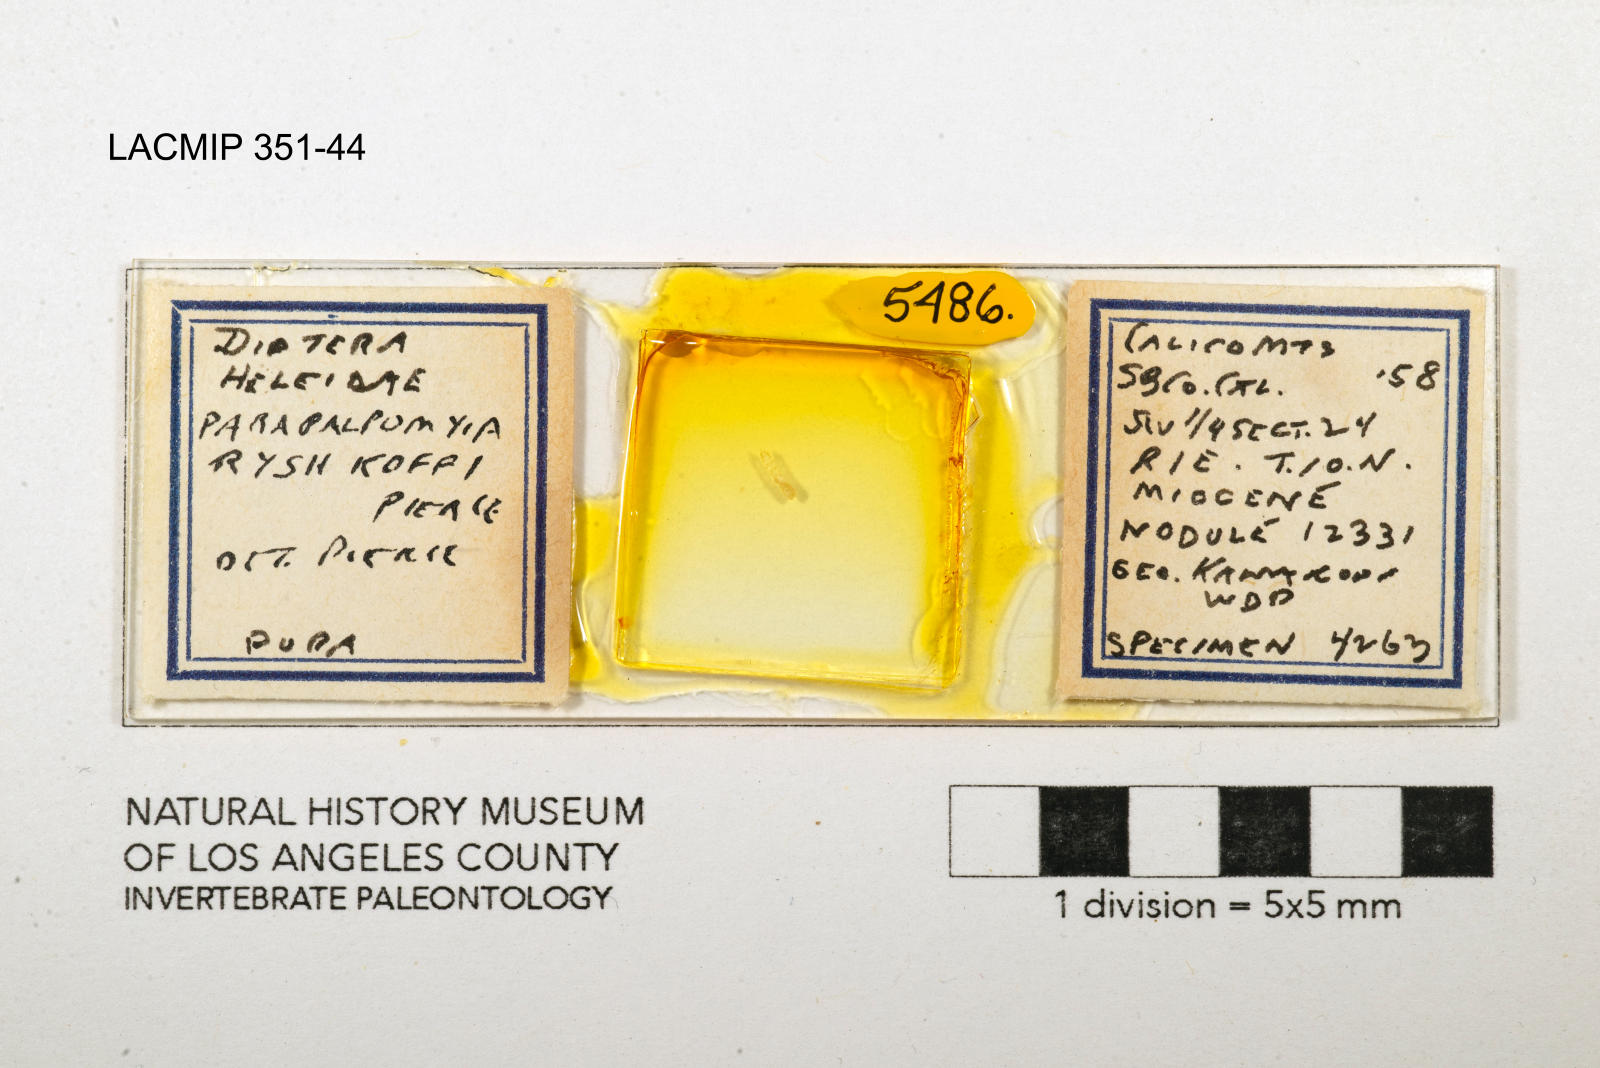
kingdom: Animalia
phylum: Arthropoda
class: Insecta
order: Diptera
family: Ceratopogonidae
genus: Palpomyia
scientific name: Palpomyia ryshkoffi
